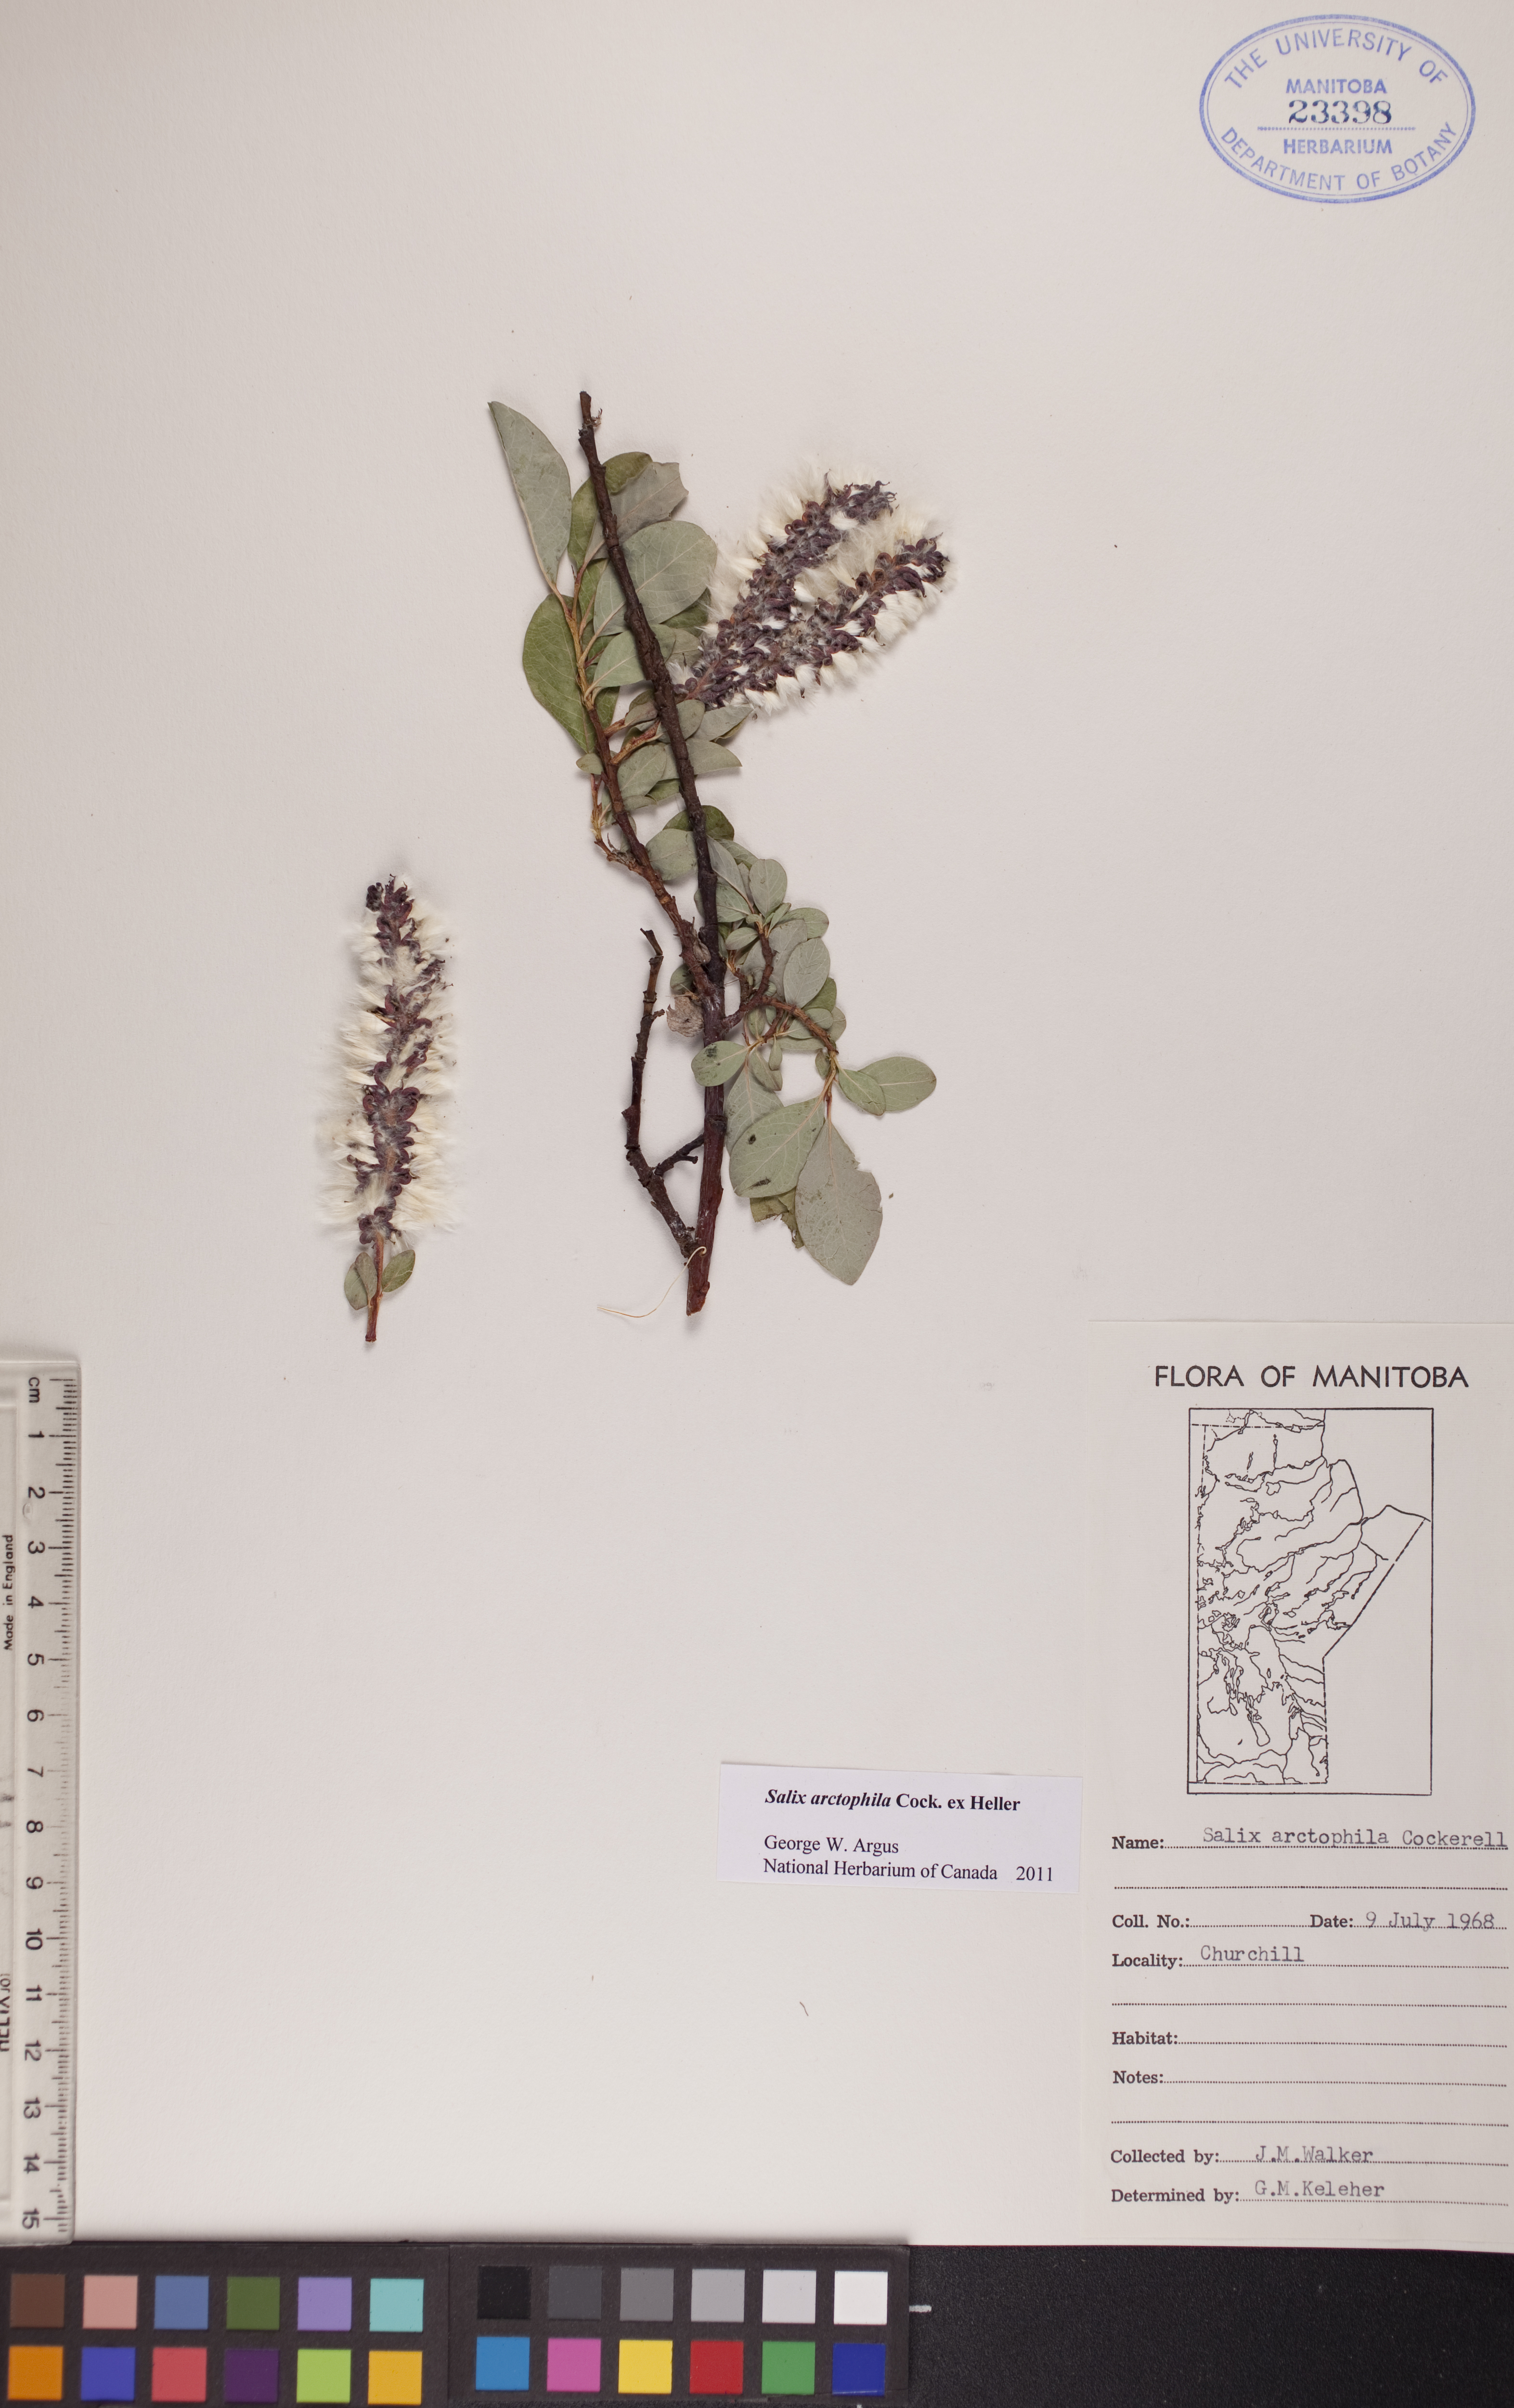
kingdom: Plantae
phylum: Tracheophyta
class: Magnoliopsida
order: Malpighiales
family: Salicaceae
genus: Salix
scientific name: Salix arctophila
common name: Greenland willow
